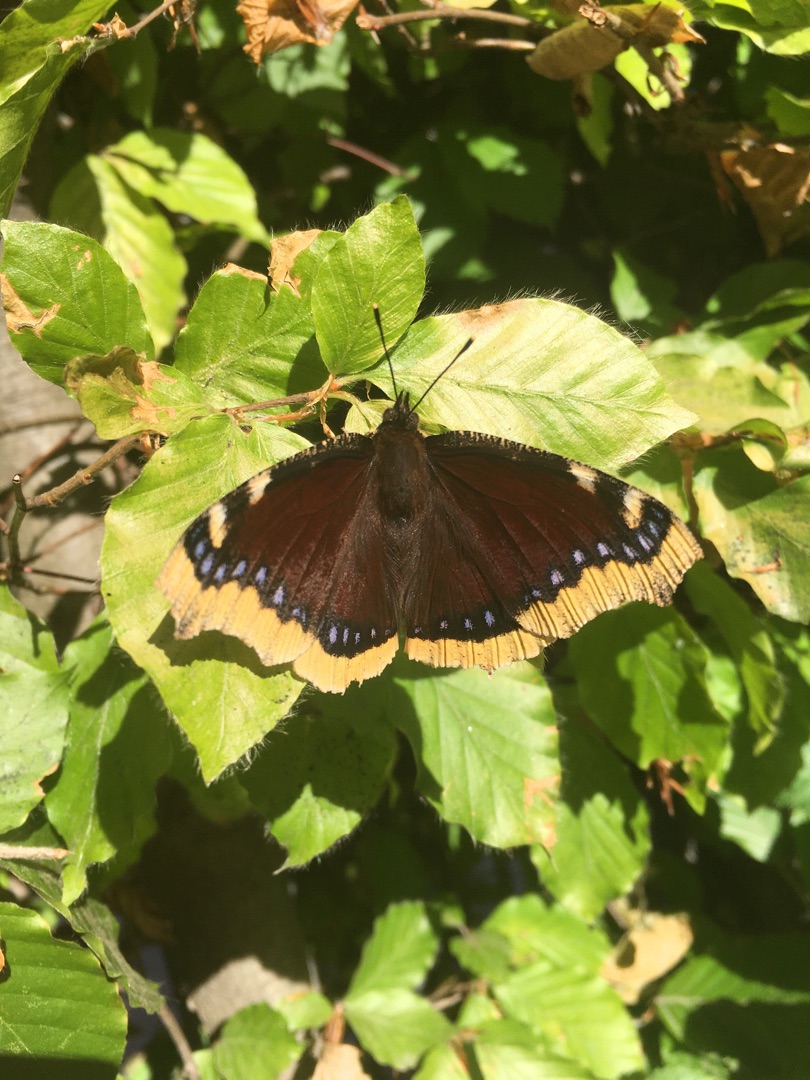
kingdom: Animalia
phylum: Arthropoda
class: Insecta
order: Lepidoptera
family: Nymphalidae
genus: Nymphalis
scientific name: Nymphalis antiopa
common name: Sørgekåbe
